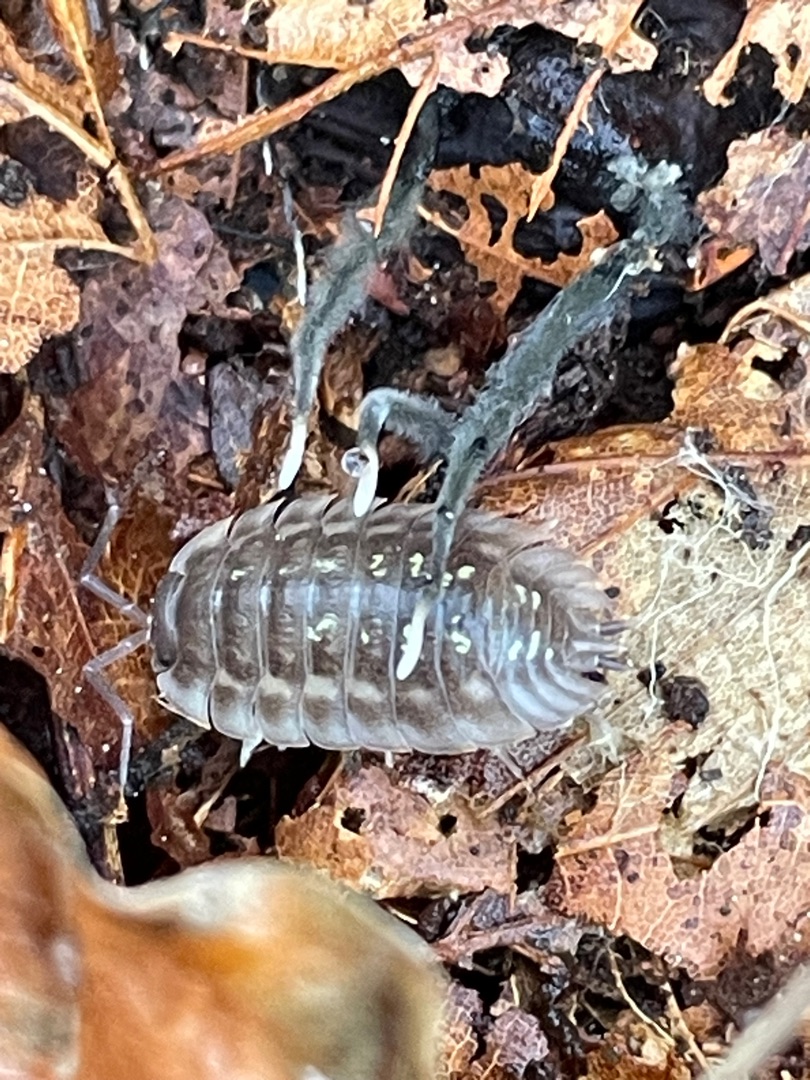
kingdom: Animalia
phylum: Arthropoda
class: Malacostraca
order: Isopoda
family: Oniscidae
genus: Oniscus
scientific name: Oniscus asellus
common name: Glat bænkebider
